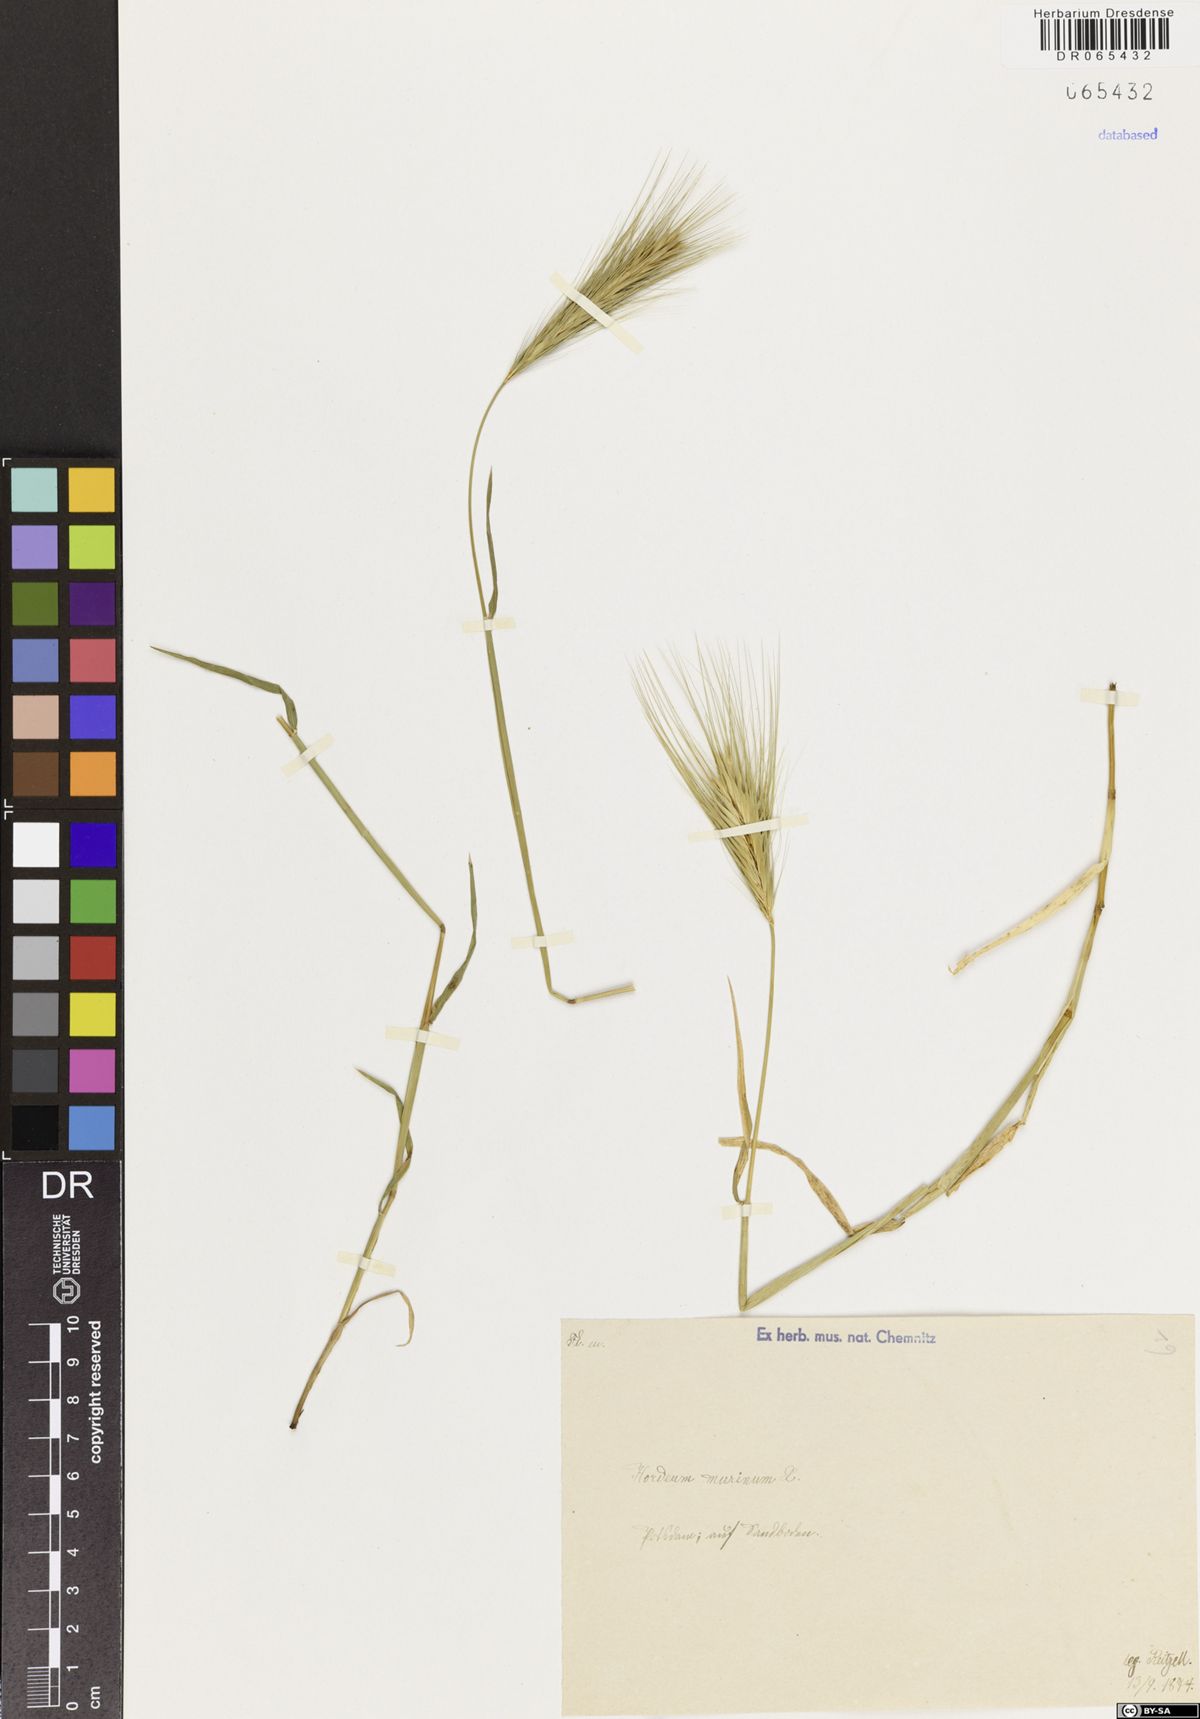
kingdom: Plantae
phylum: Tracheophyta
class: Liliopsida
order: Poales
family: Poaceae
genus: Hordeum
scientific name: Hordeum murinum
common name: Wall barley
